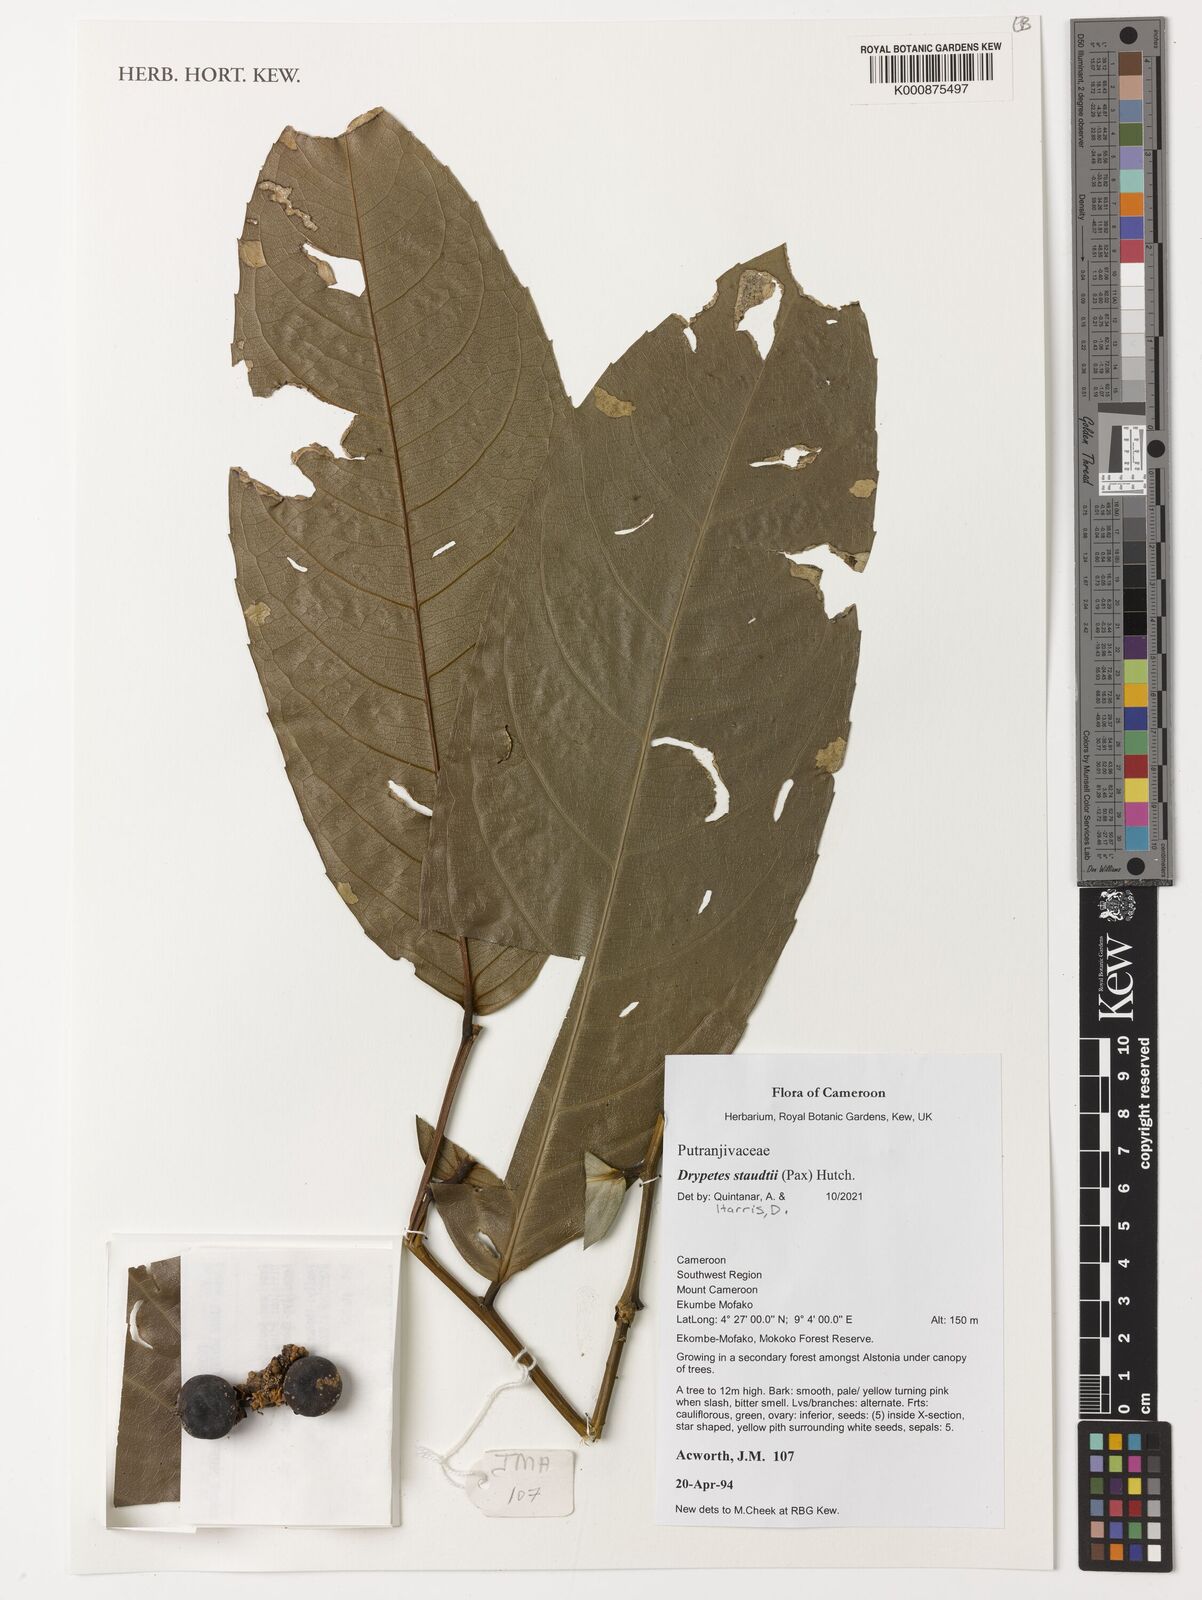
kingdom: Plantae
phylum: Tracheophyta
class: Magnoliopsida
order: Malpighiales
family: Putranjivaceae
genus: Drypetes
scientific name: Drypetes staudtii
